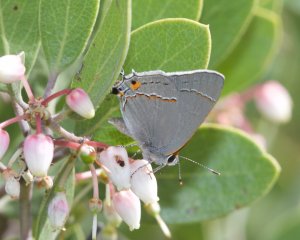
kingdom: Animalia
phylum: Arthropoda
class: Insecta
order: Lepidoptera
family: Lycaenidae
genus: Strymon
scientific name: Strymon melinus
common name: Gray Hairstreak
